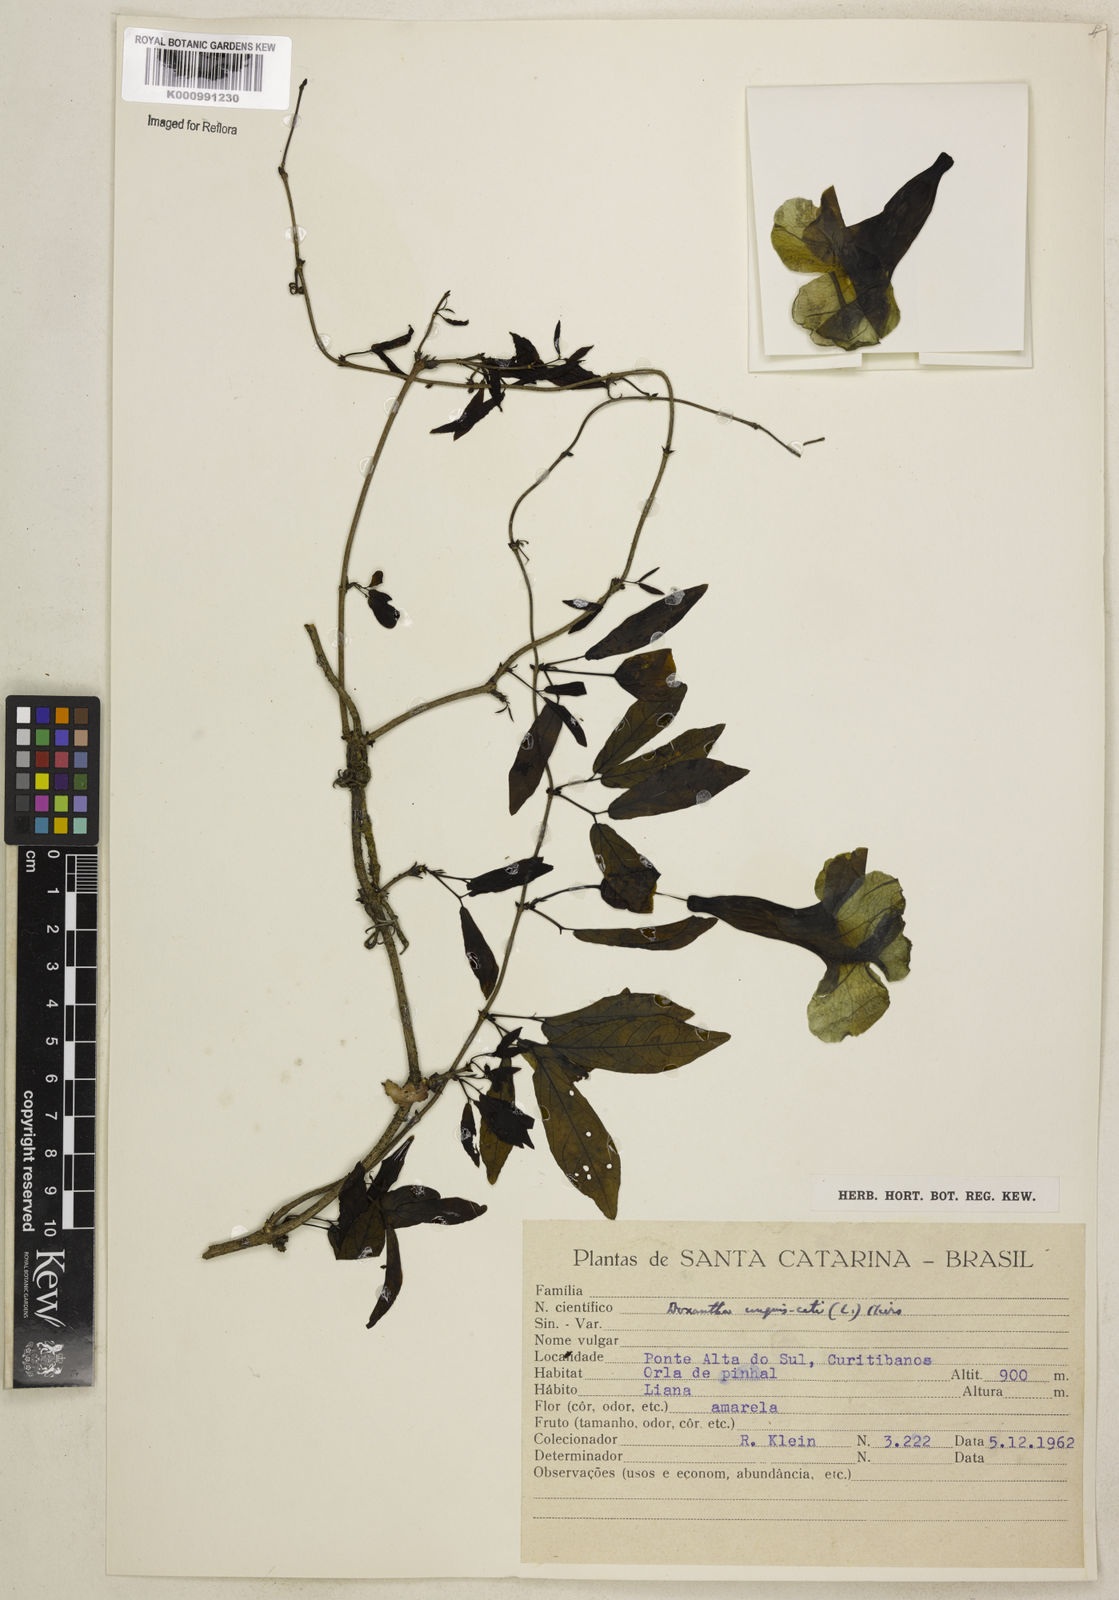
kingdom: Plantae
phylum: Tracheophyta
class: Magnoliopsida
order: Lamiales
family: Bignoniaceae
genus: Dolichandra
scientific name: Dolichandra unguis-cati
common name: Catclaw vine
